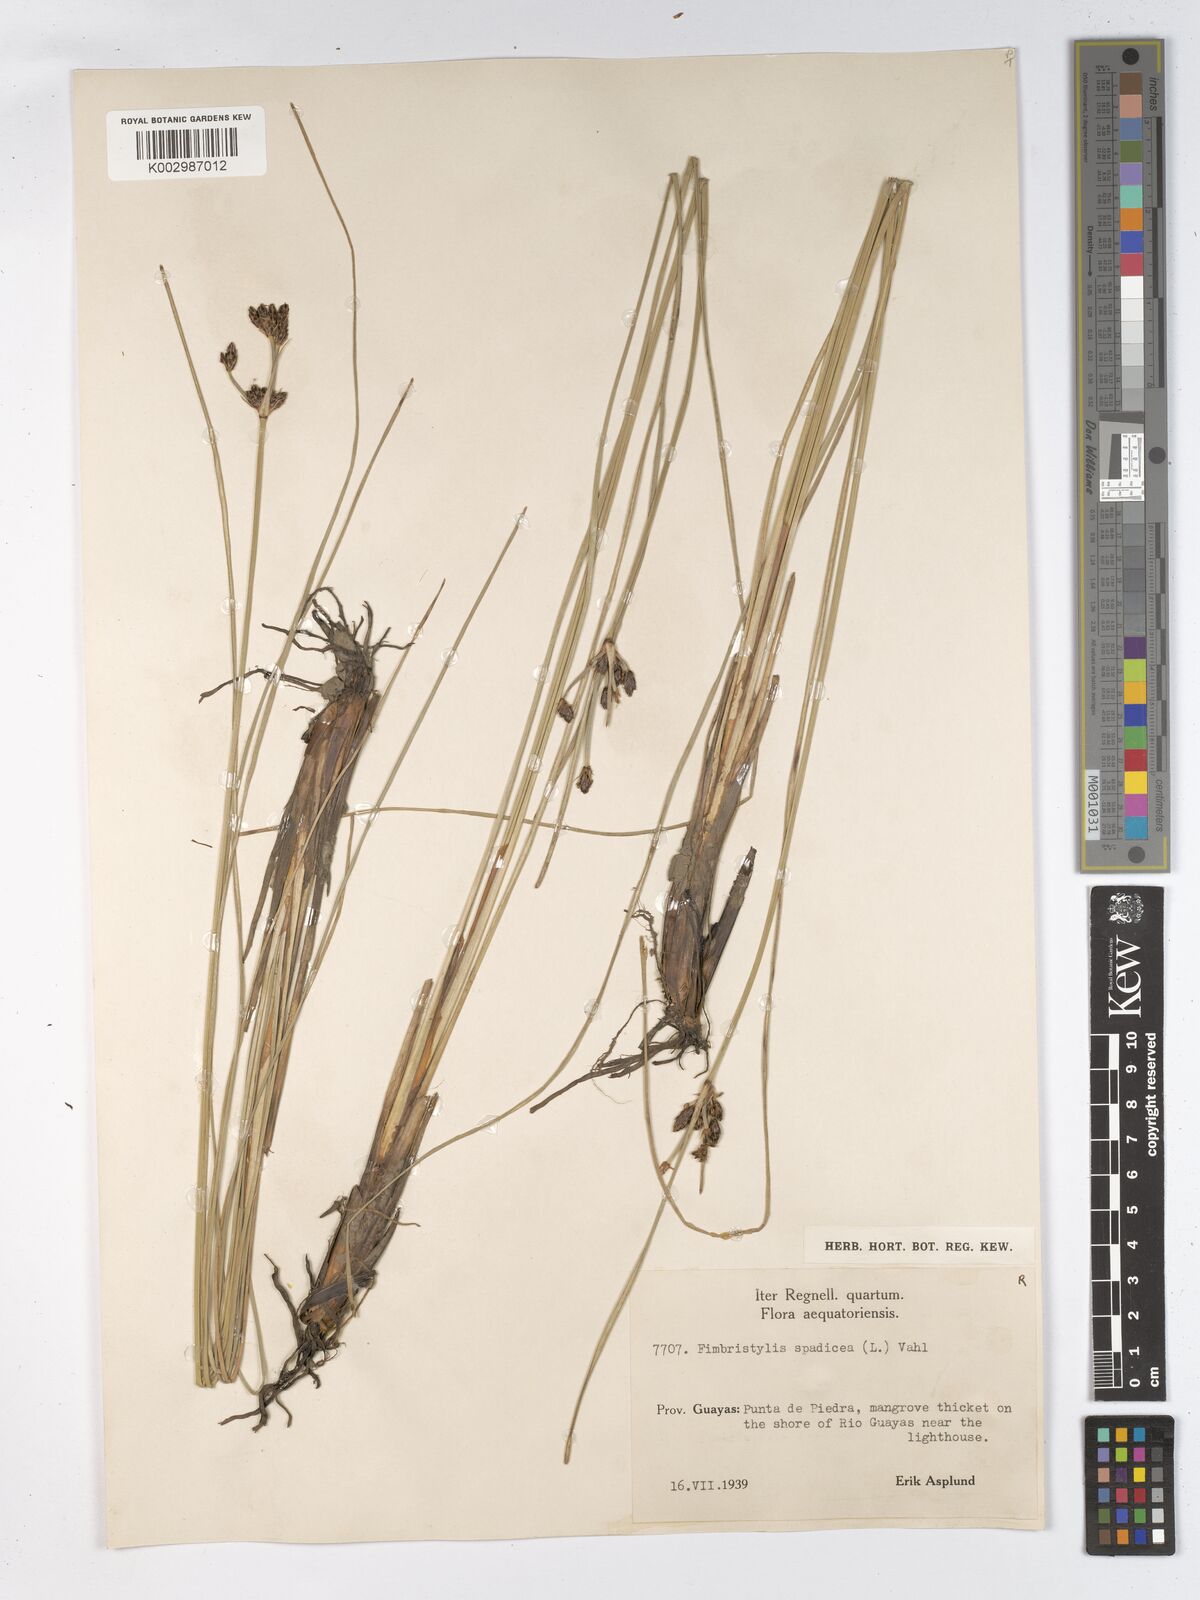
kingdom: Plantae
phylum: Tracheophyta
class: Liliopsida
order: Poales
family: Cyperaceae
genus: Fimbristylis
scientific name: Fimbristylis spadicea
